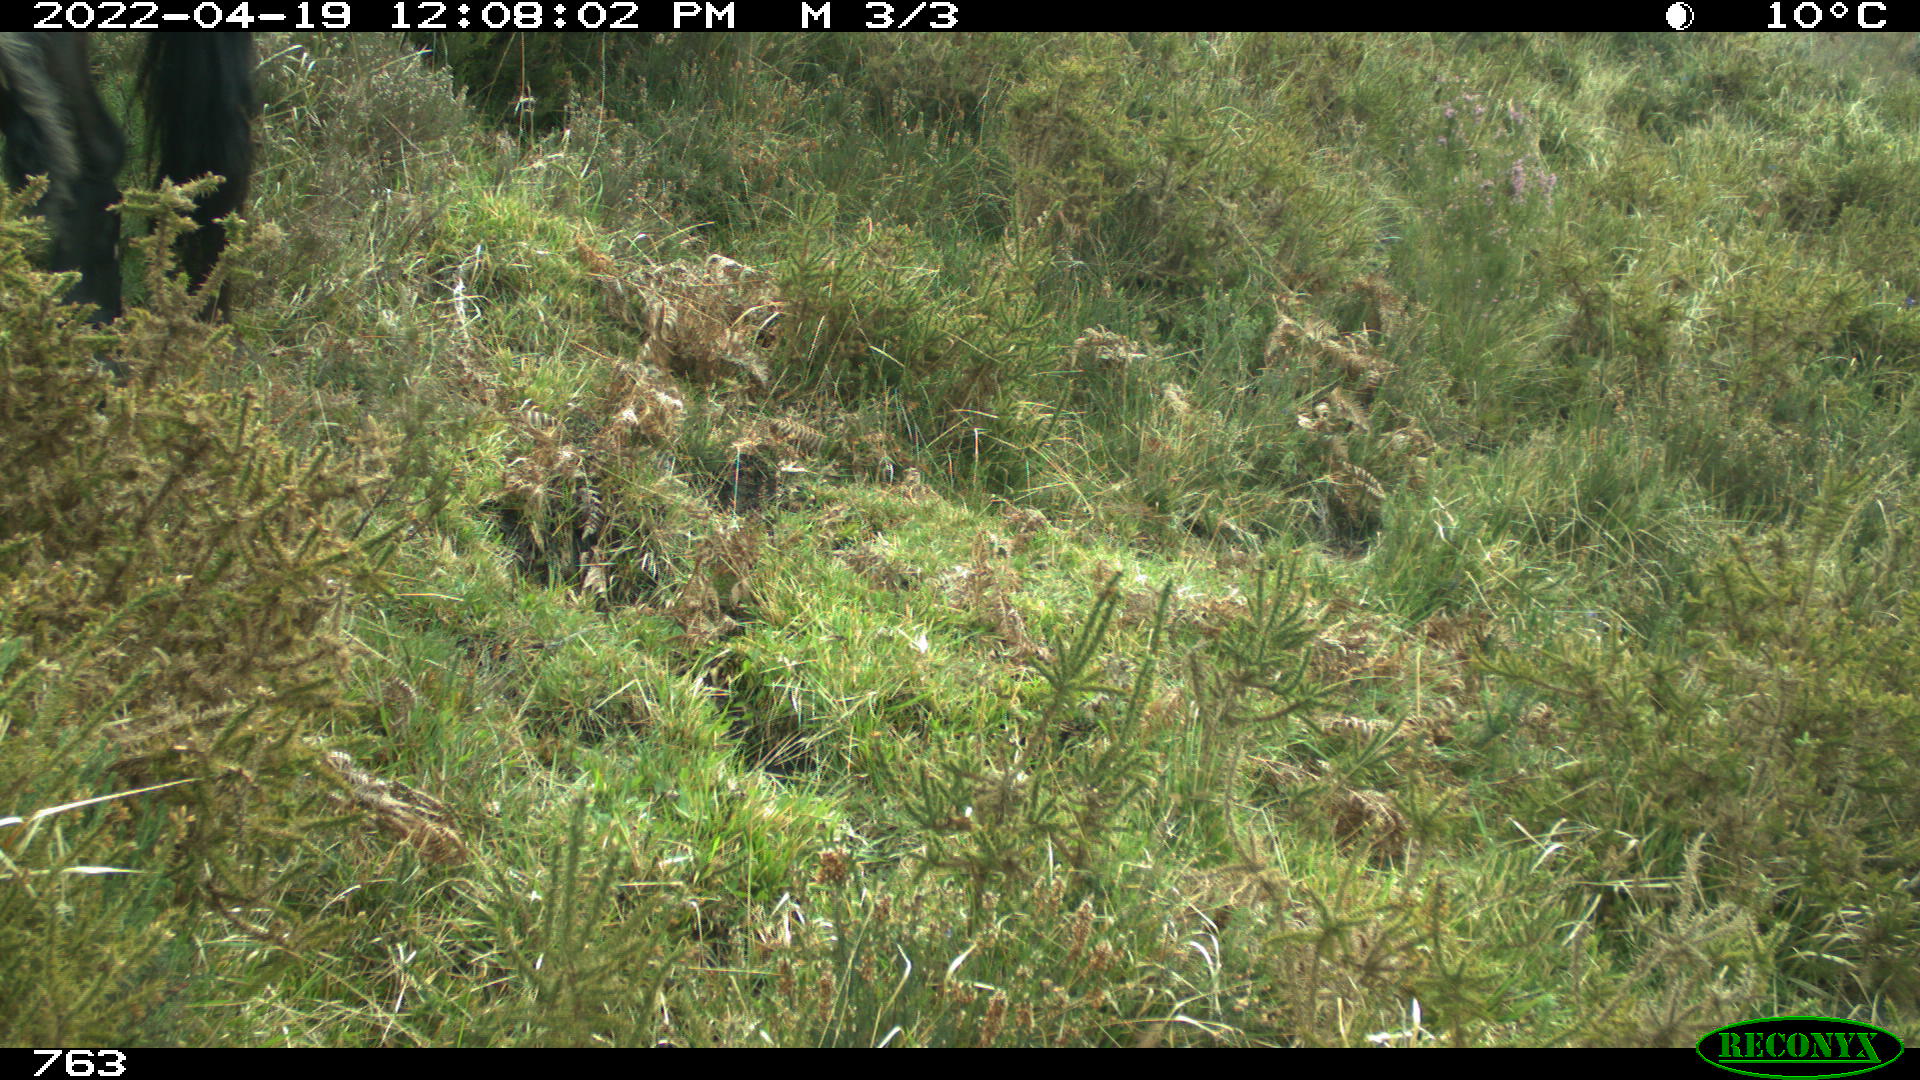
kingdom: Animalia
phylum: Chordata
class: Mammalia
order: Perissodactyla
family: Equidae
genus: Equus
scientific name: Equus caballus
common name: Horse
